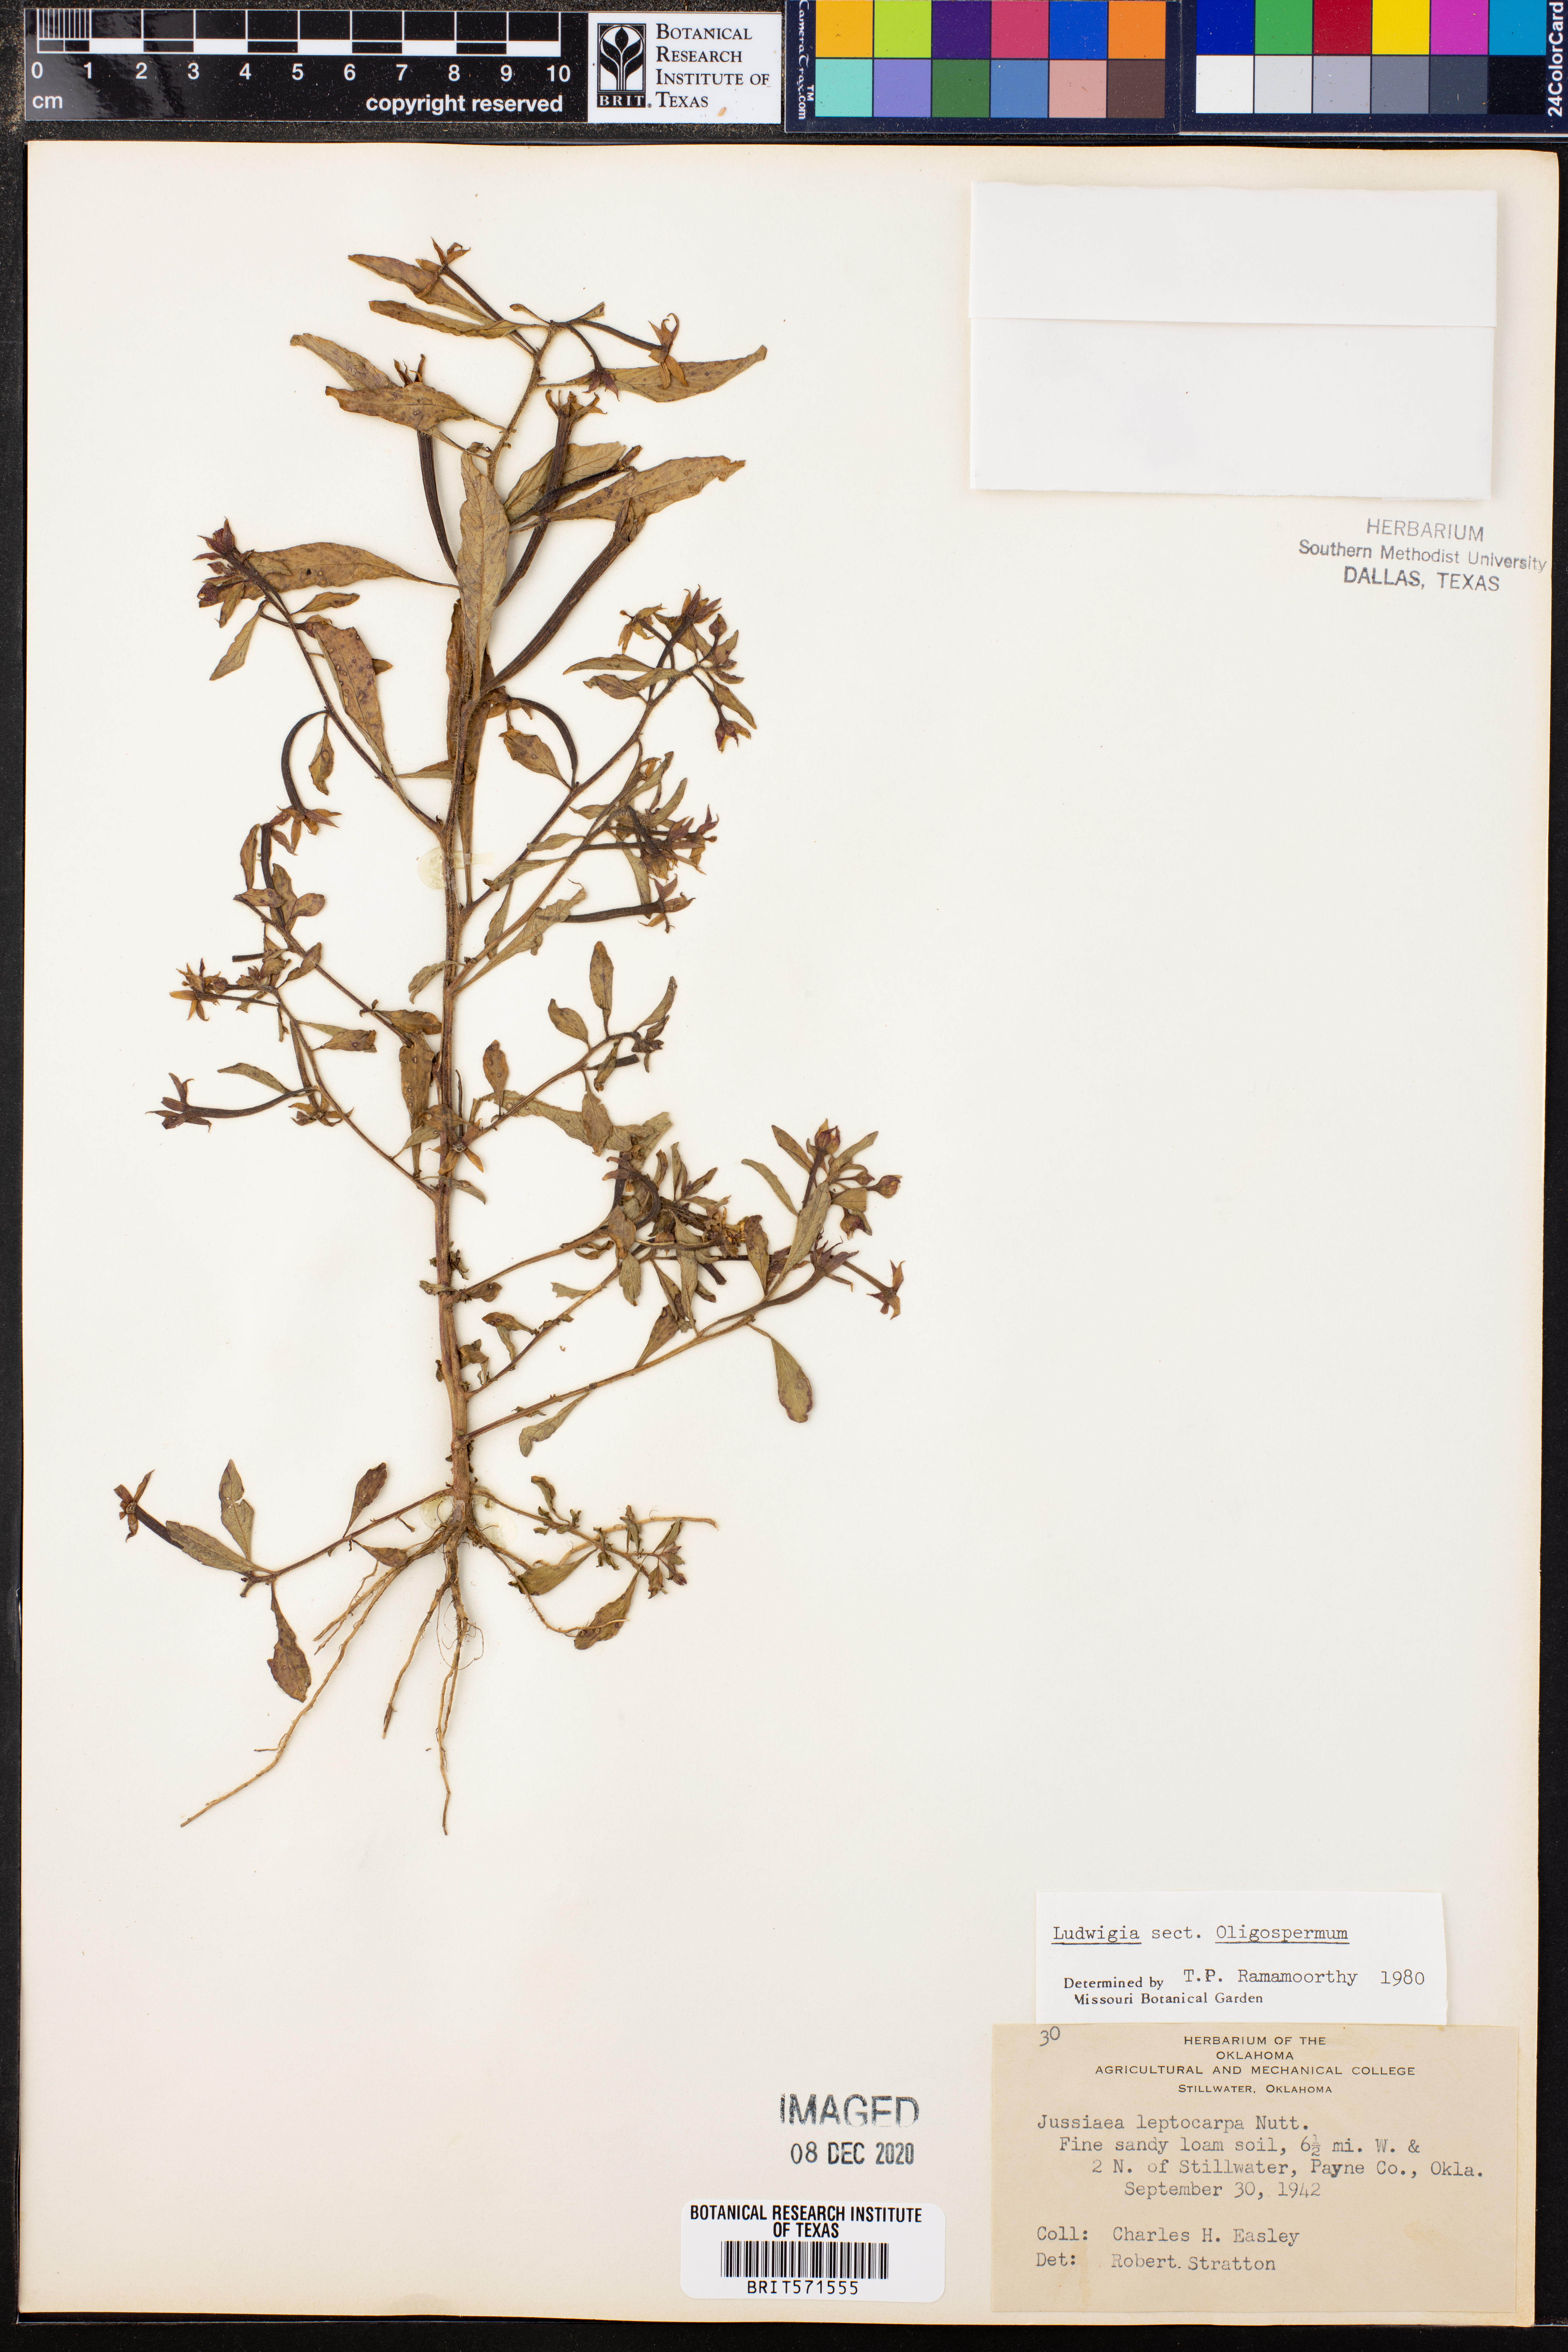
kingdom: Plantae
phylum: Tracheophyta
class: Magnoliopsida
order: Myrtales
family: Onagraceae
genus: Ludwigia
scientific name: Ludwigia
